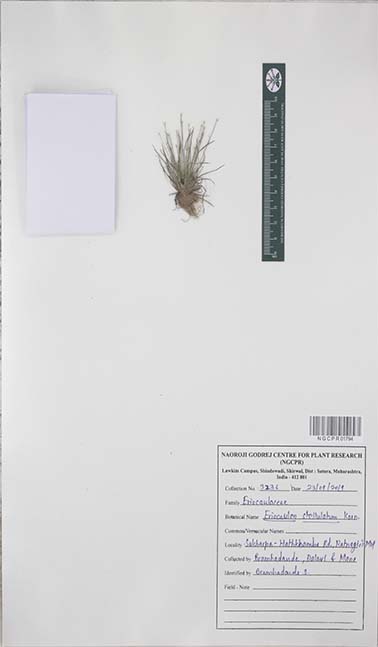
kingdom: Plantae
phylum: Tracheophyta
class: Liliopsida
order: Poales
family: Eriocaulaceae
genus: Eriocaulon
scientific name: Eriocaulon stellulatum
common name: Starry pipewort
